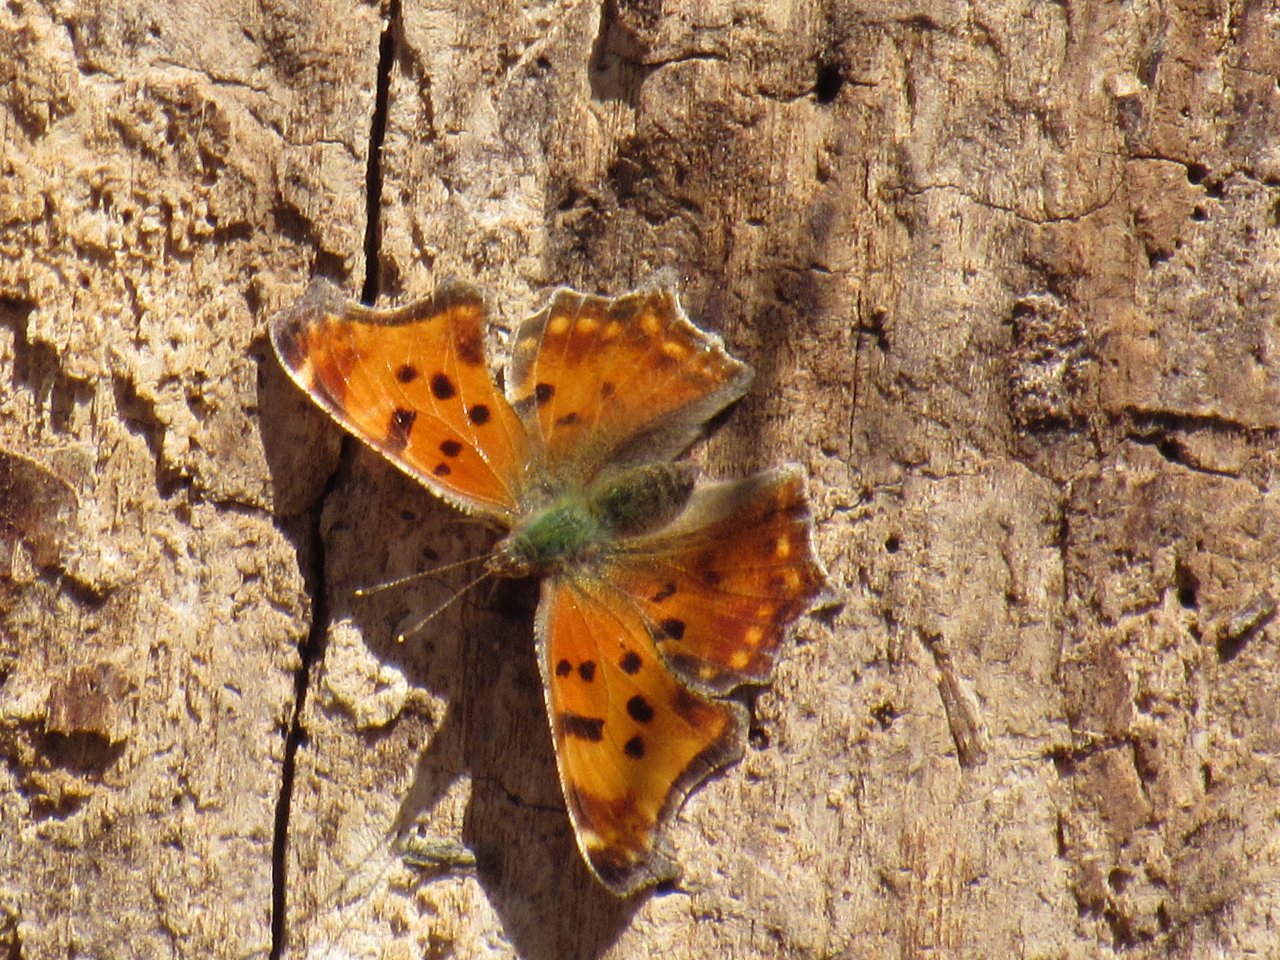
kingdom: Animalia
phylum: Arthropoda
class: Insecta
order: Lepidoptera
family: Nymphalidae
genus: Polygonia
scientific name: Polygonia comma
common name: Eastern Comma
